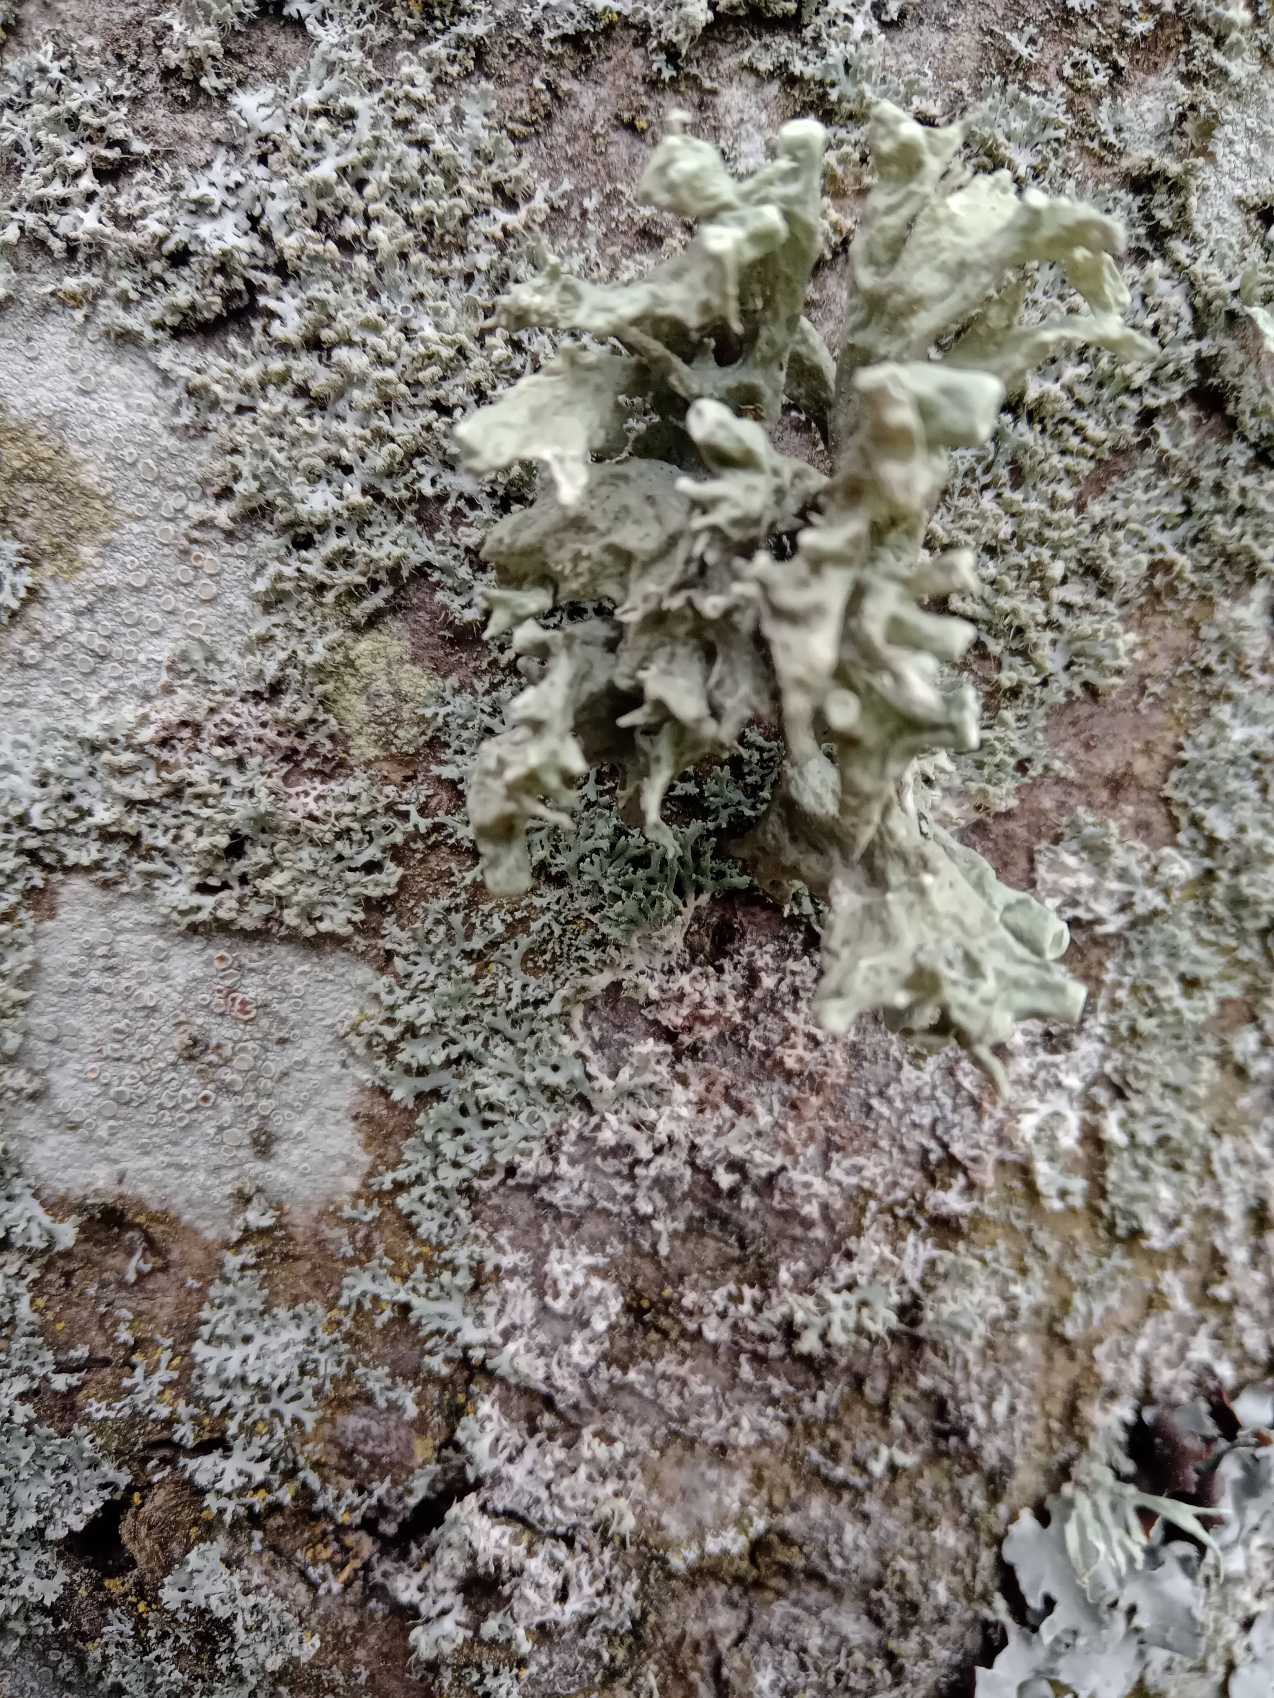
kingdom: Fungi
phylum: Ascomycota
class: Lecanoromycetes
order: Lecanorales
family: Ramalinaceae
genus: Ramalina
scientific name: Ramalina fastigiata
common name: Tue-grenlav
